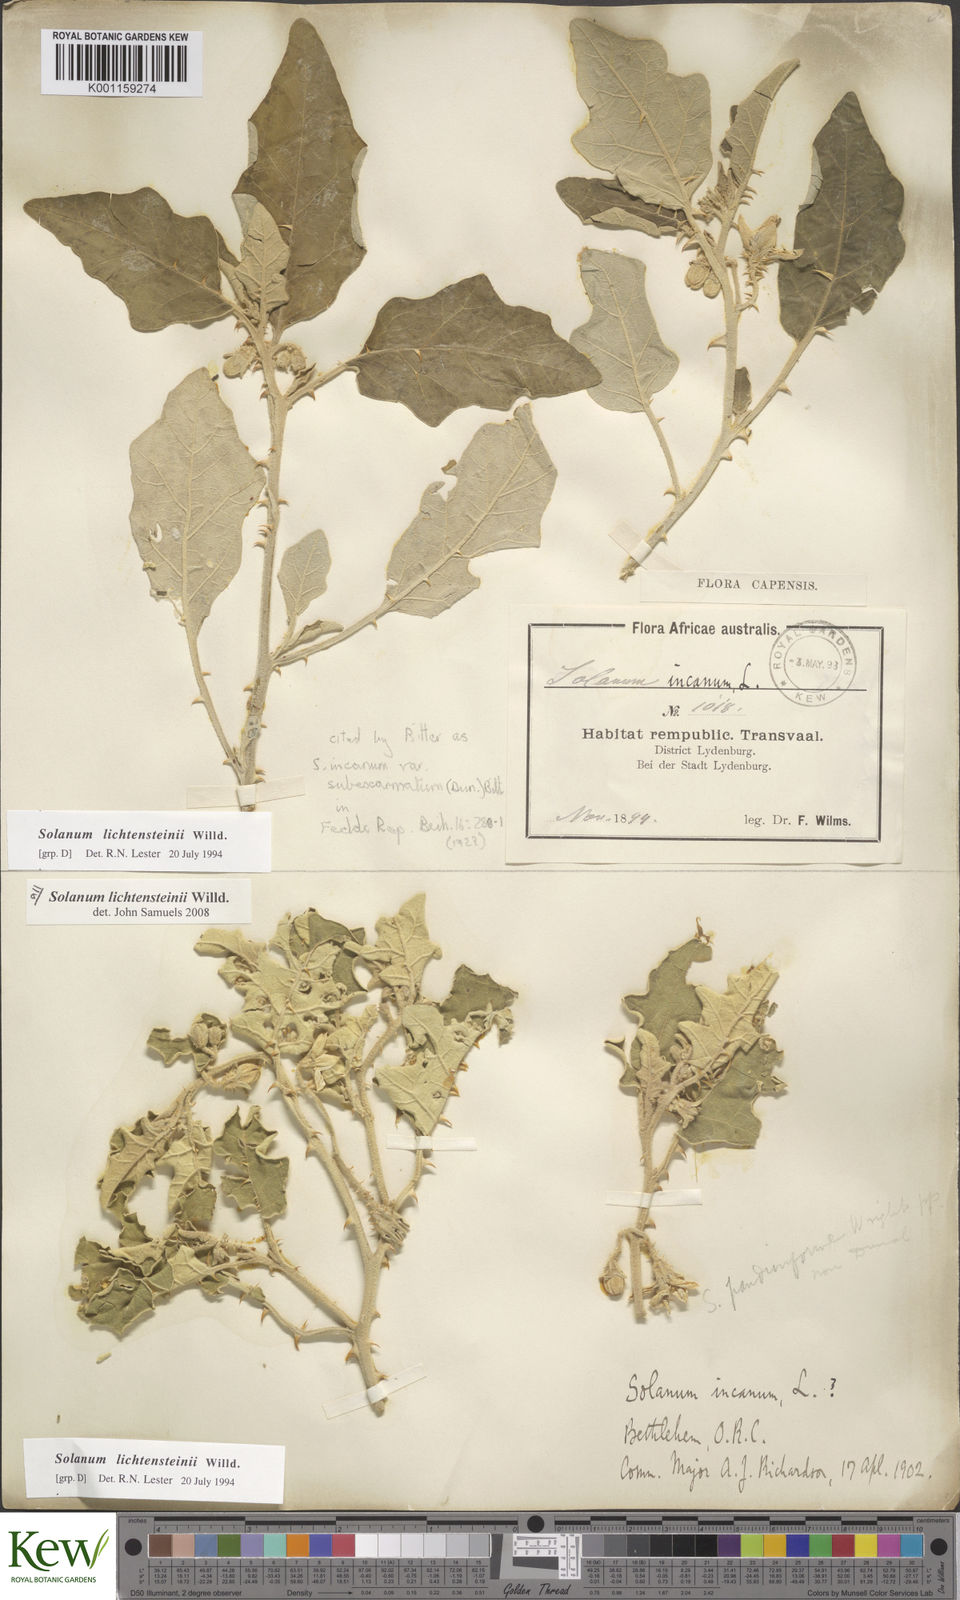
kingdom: Plantae
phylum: Tracheophyta
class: Magnoliopsida
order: Solanales
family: Solanaceae
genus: Solanum
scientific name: Solanum lichtensteinii
